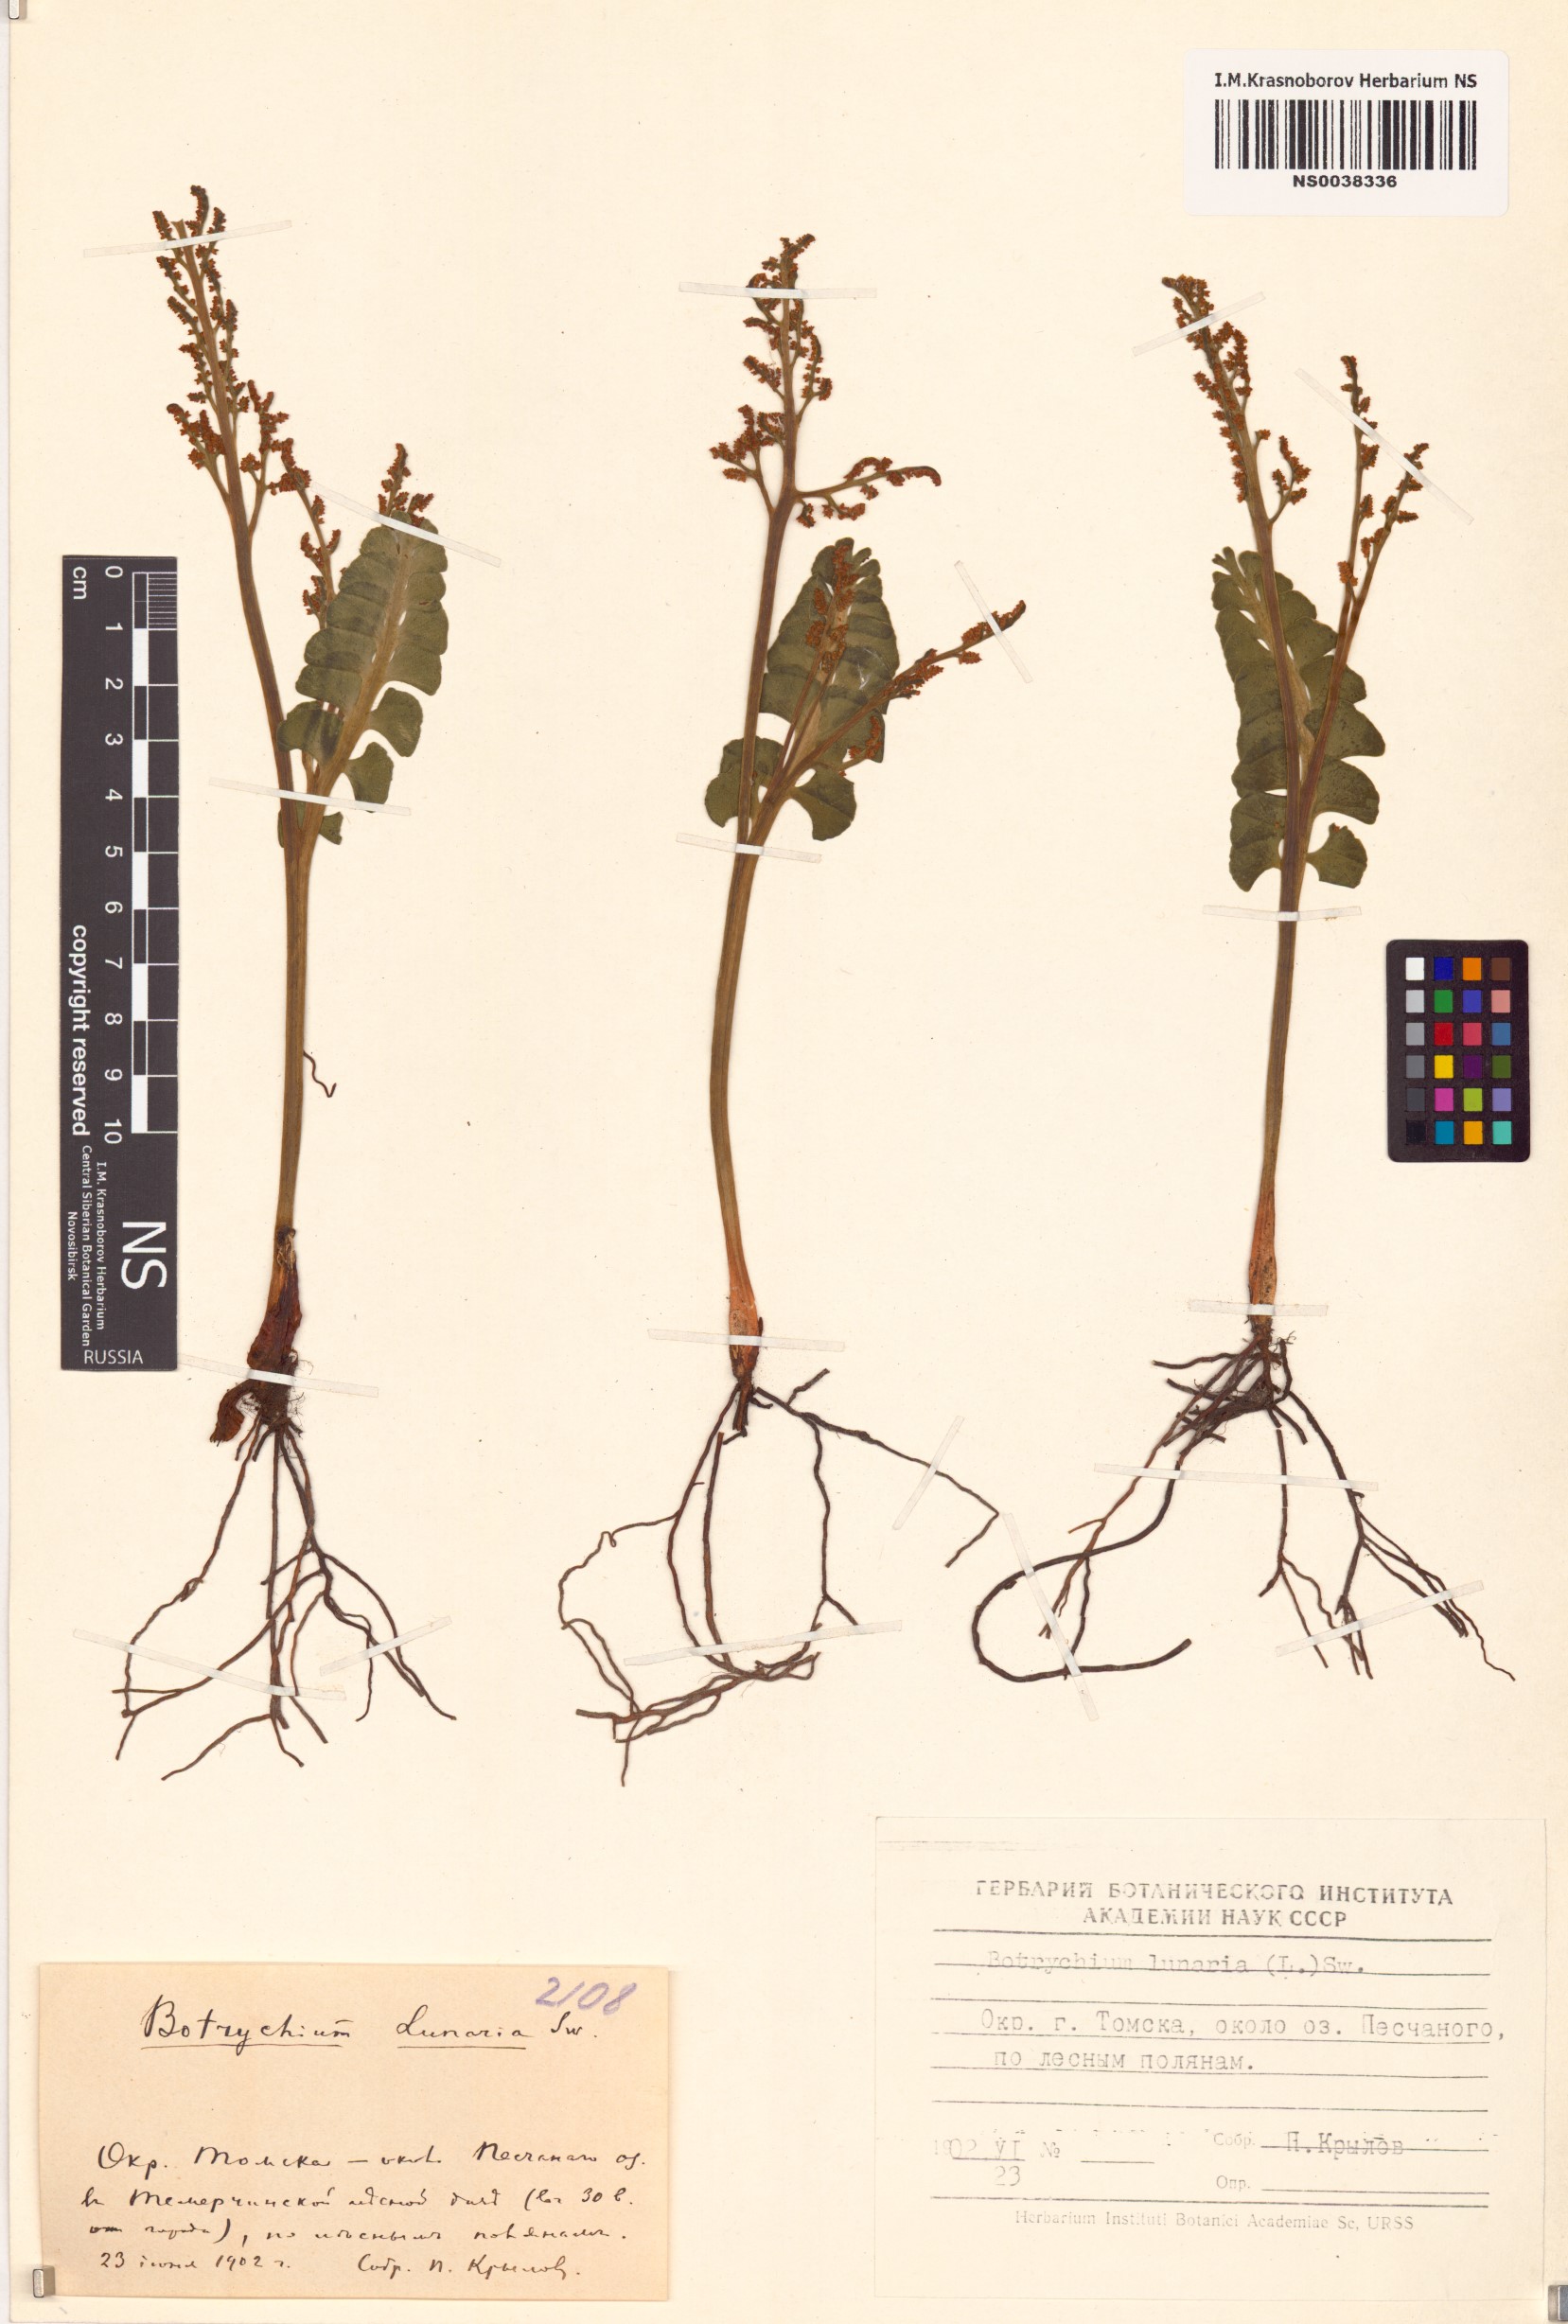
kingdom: Plantae
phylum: Tracheophyta
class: Polypodiopsida
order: Ophioglossales
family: Ophioglossaceae
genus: Botrychium
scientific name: Botrychium lunaria
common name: Moonwort
